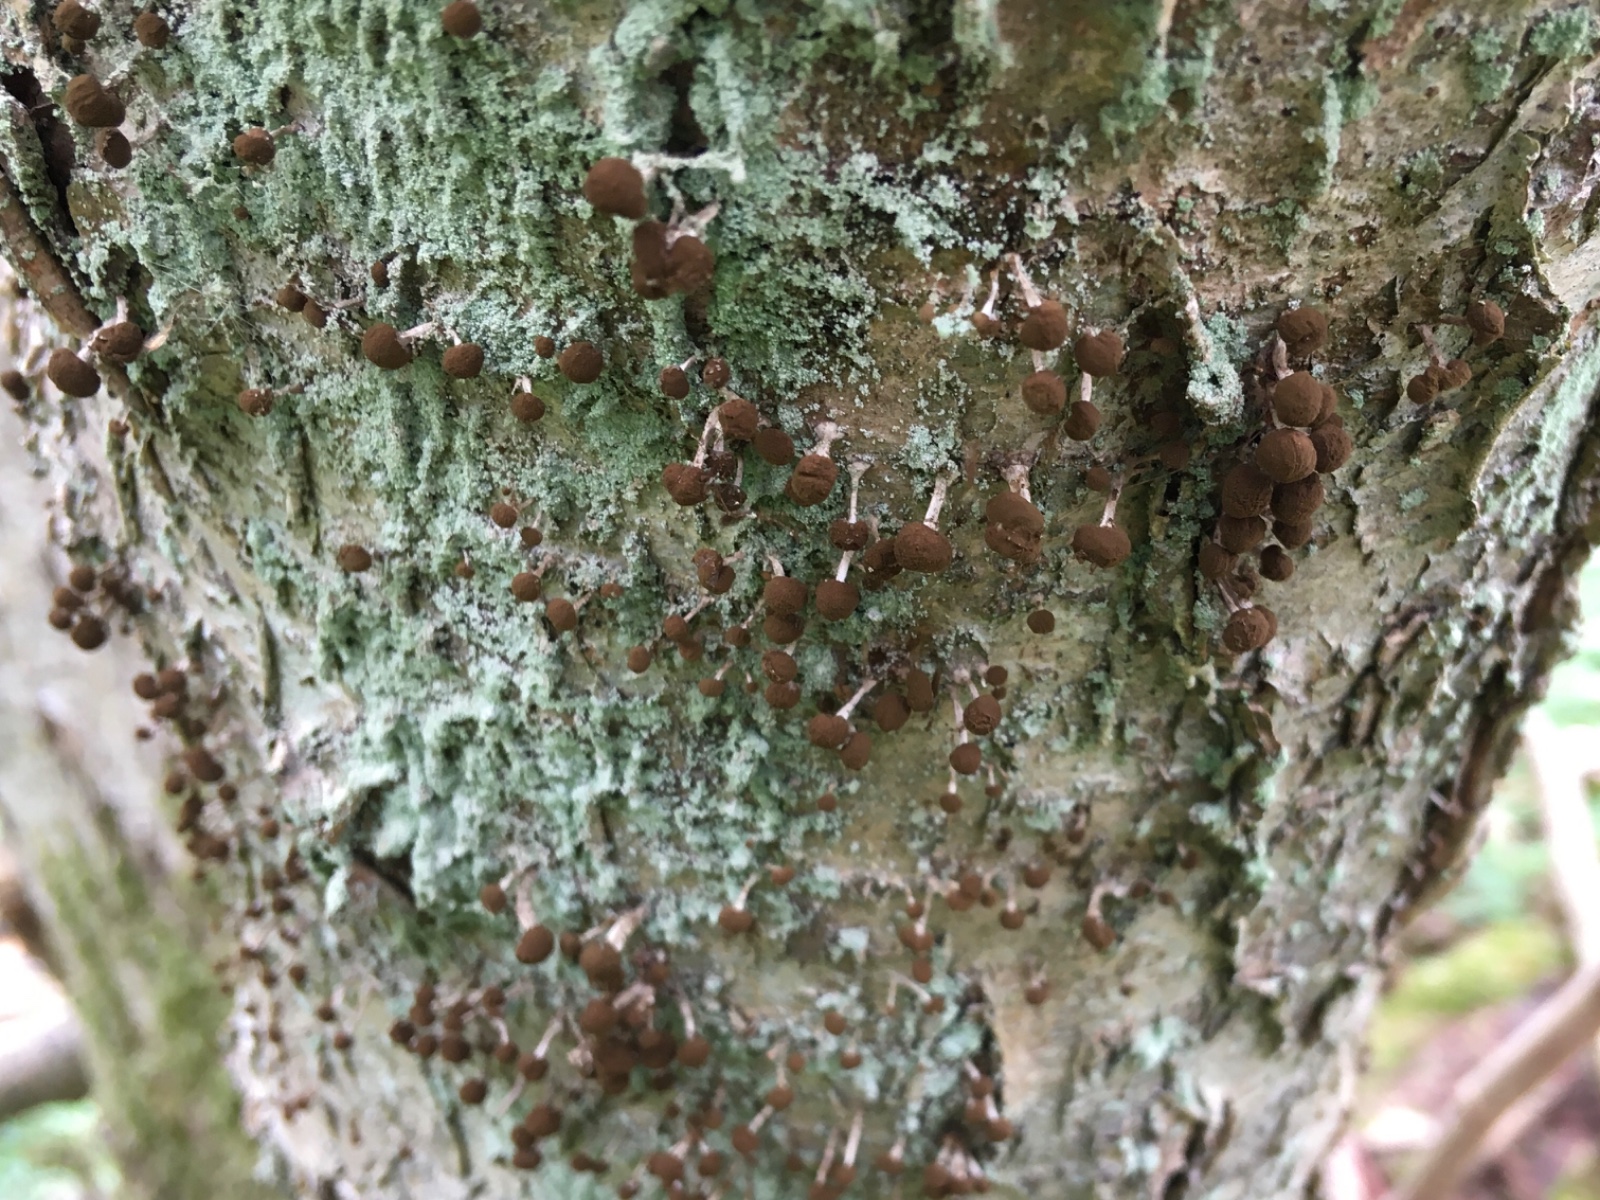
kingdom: Fungi
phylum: Basidiomycota
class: Atractiellomycetes
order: Atractiellales
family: Phleogenaceae
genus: Phleogena
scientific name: Phleogena faginea
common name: pudderkølle
